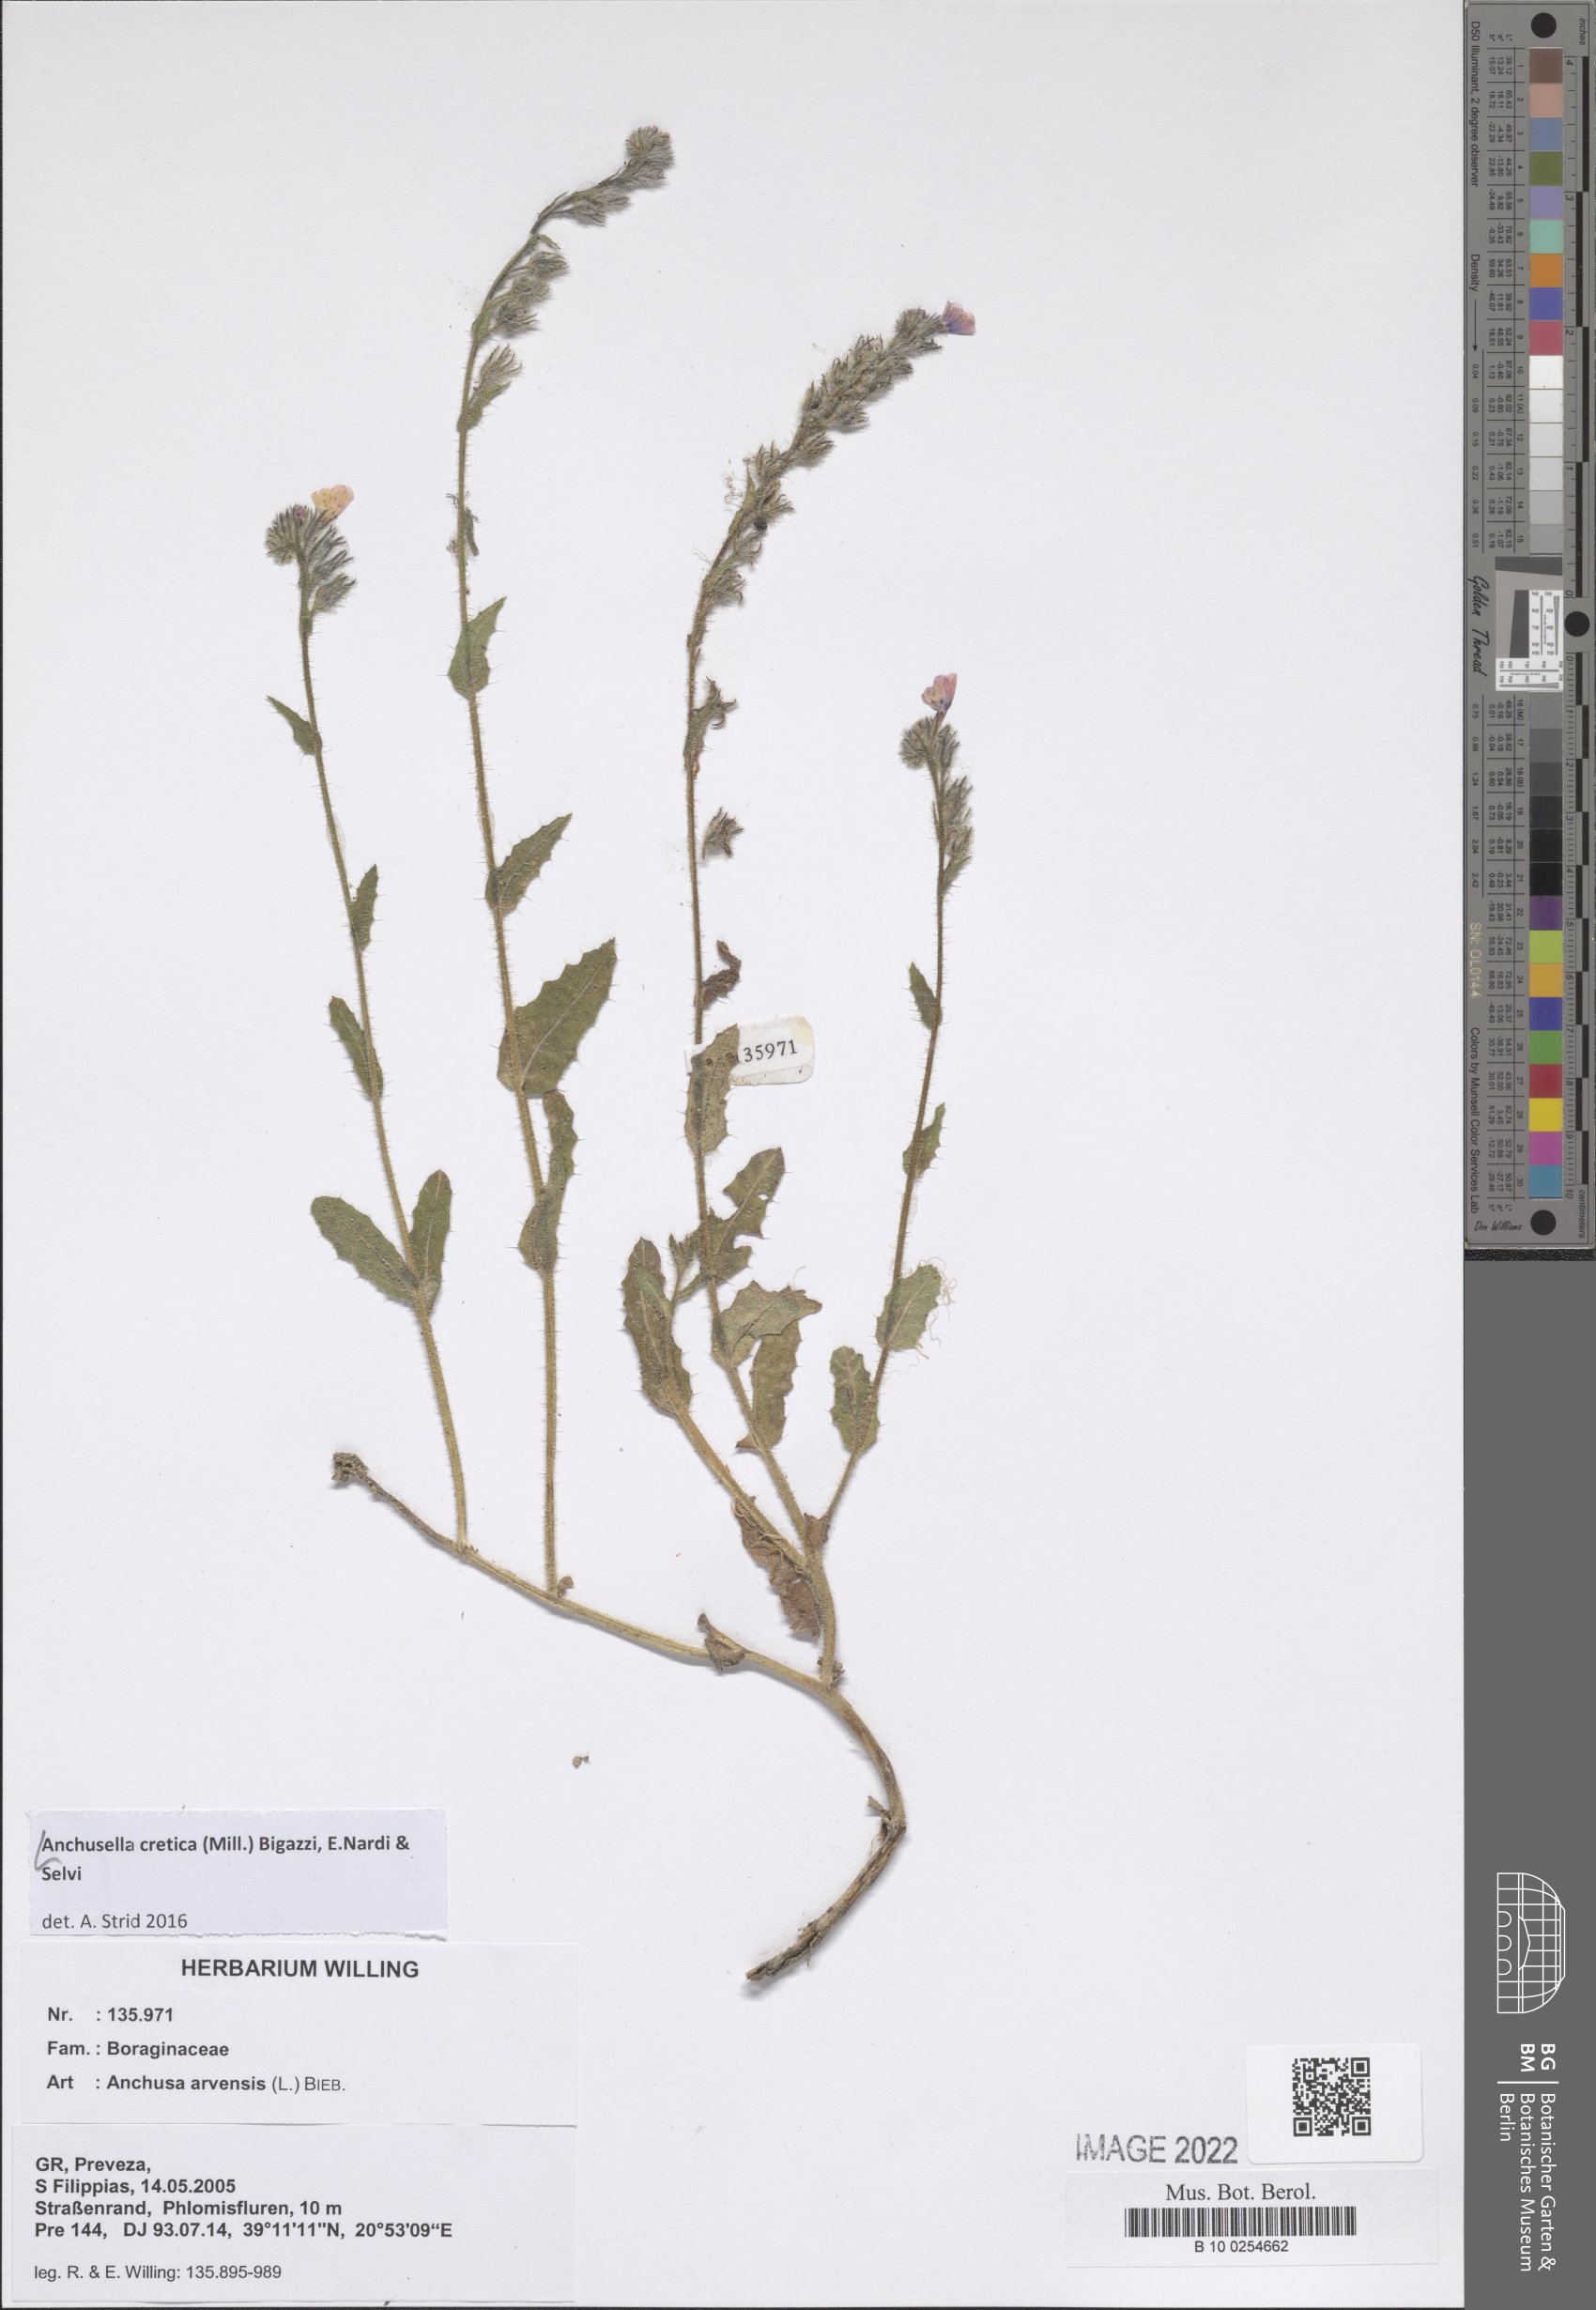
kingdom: Plantae
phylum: Tracheophyta
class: Magnoliopsida
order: Boraginales
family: Boraginaceae
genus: Anchusella
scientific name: Anchusella cretica
